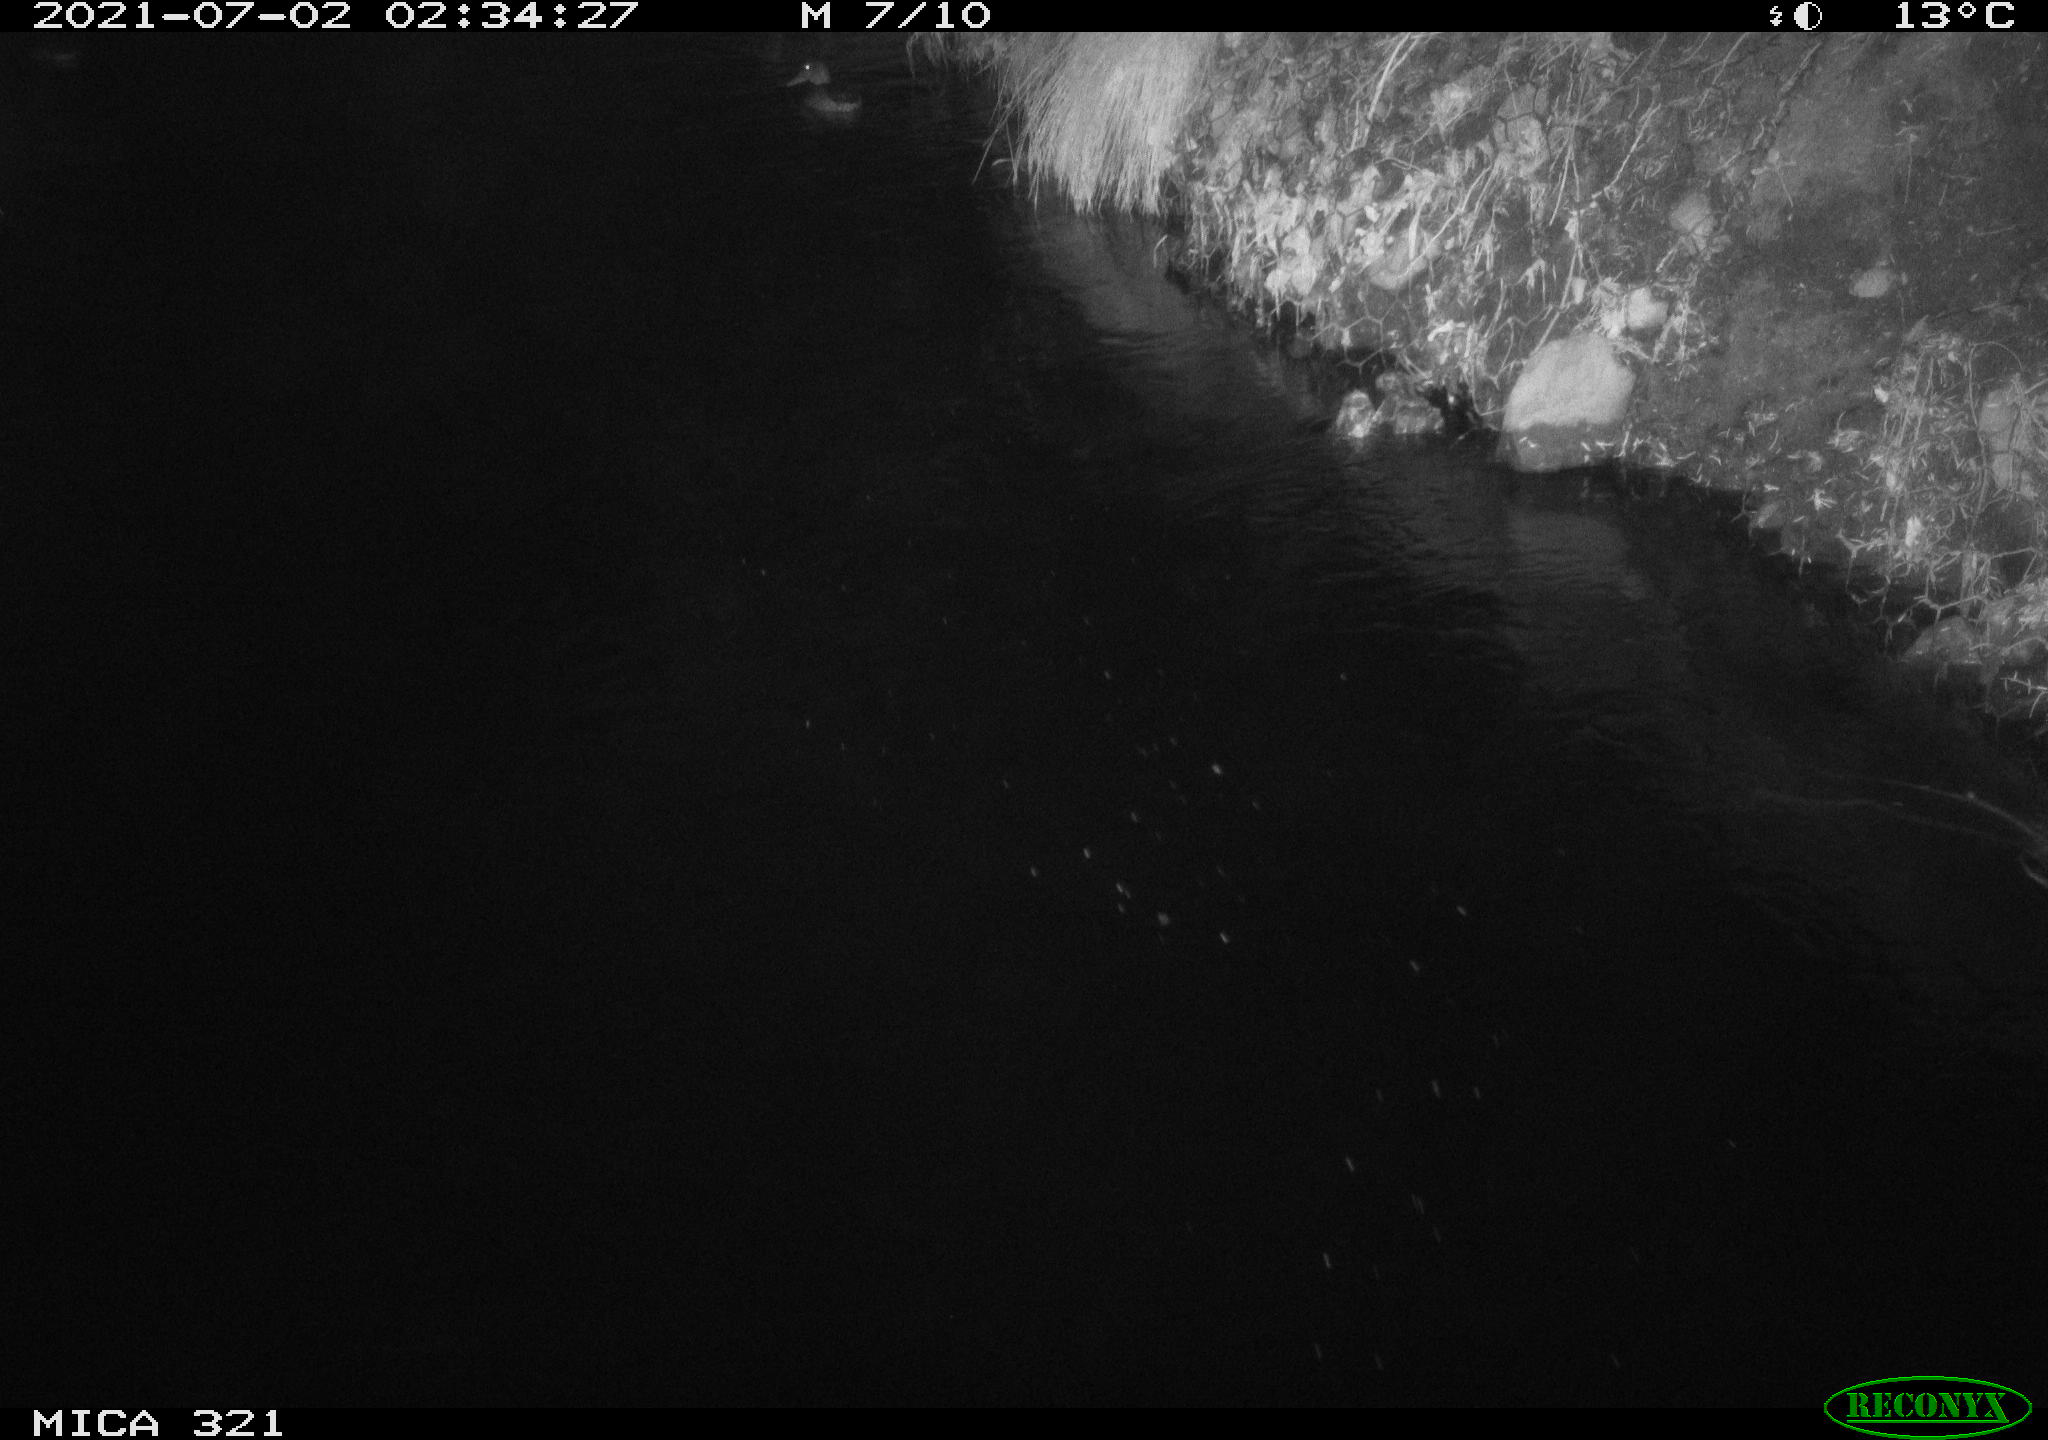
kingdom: Animalia
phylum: Chordata
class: Aves
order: Anseriformes
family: Anatidae
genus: Anas
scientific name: Anas platyrhynchos
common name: Mallard
